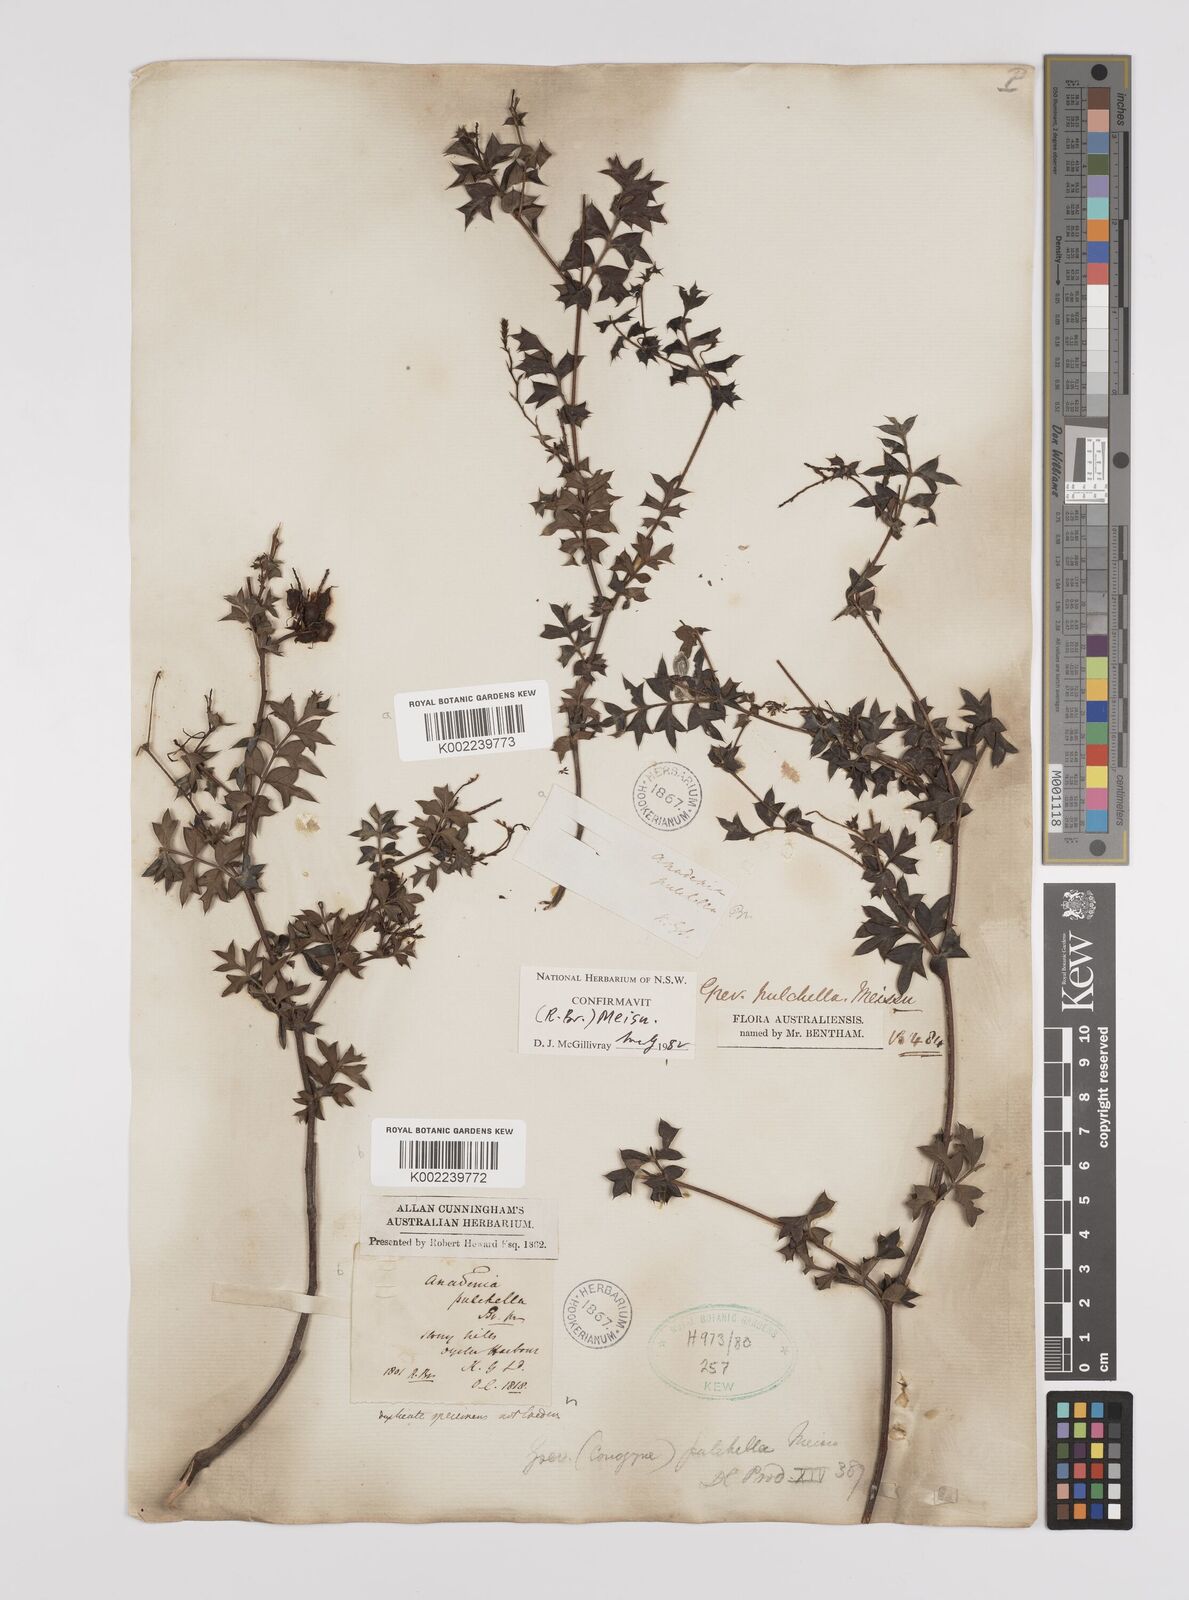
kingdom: Plantae
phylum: Tracheophyta
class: Magnoliopsida
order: Proteales
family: Proteaceae
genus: Grevillea
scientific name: Grevillea pulchella
